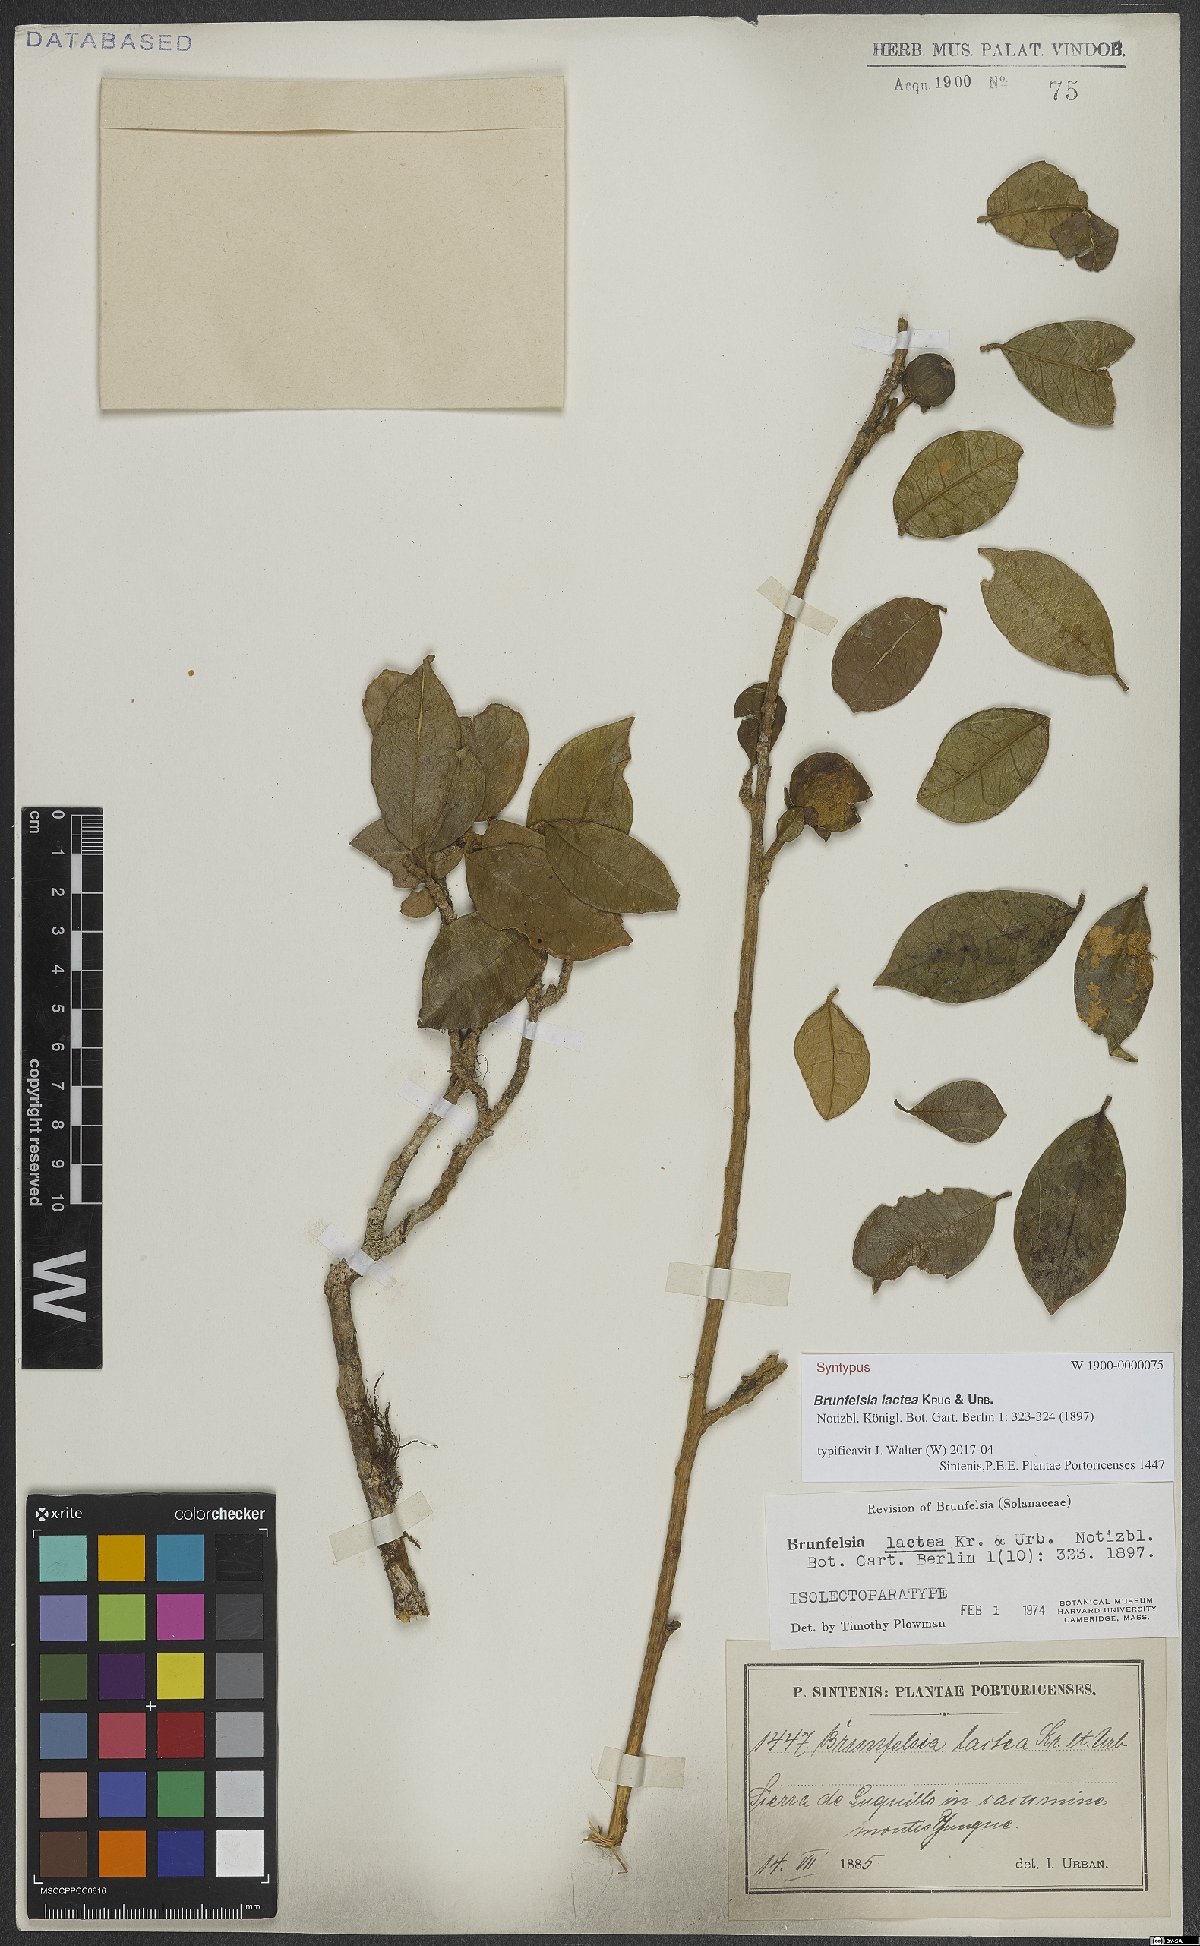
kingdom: Plantae
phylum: Tracheophyta
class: Magnoliopsida
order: Solanales
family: Solanaceae
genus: Brunfelsia
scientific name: Brunfelsia lactea
